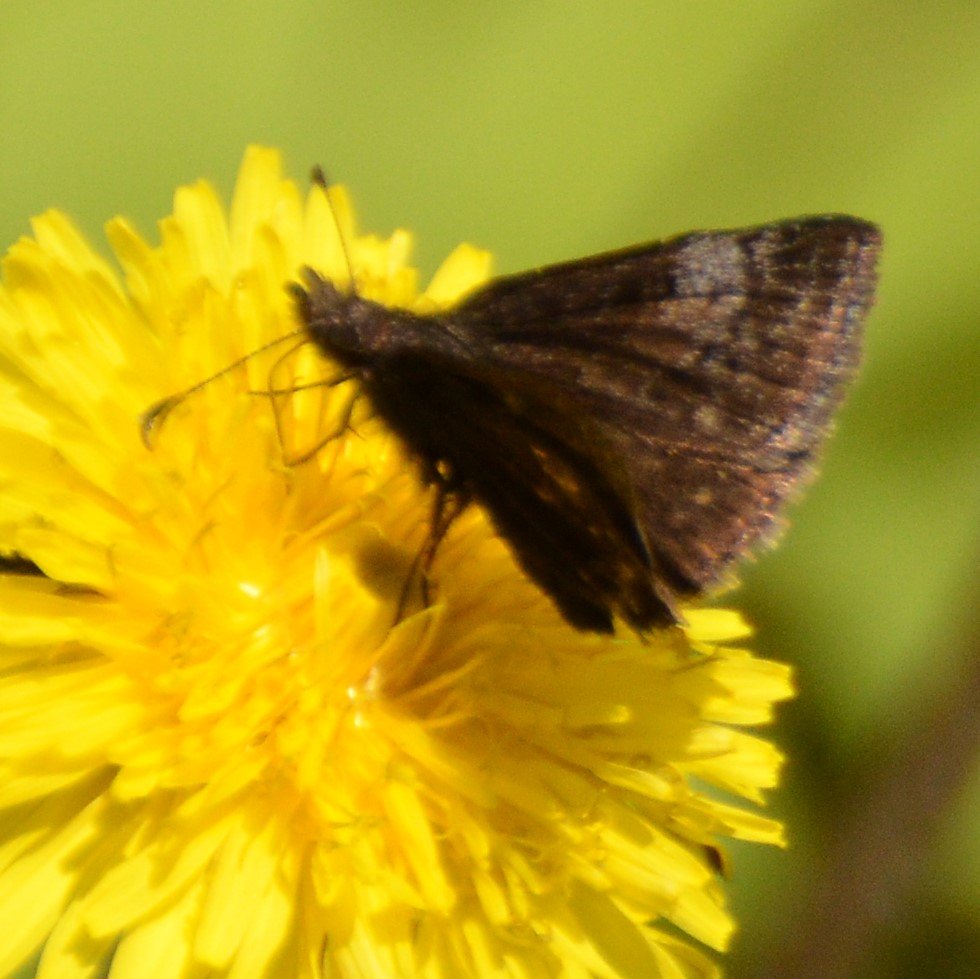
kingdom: Animalia
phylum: Arthropoda
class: Insecta
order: Lepidoptera
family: Hesperiidae
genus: Erynnis
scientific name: Erynnis icelus
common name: Dreamy Duskywing
